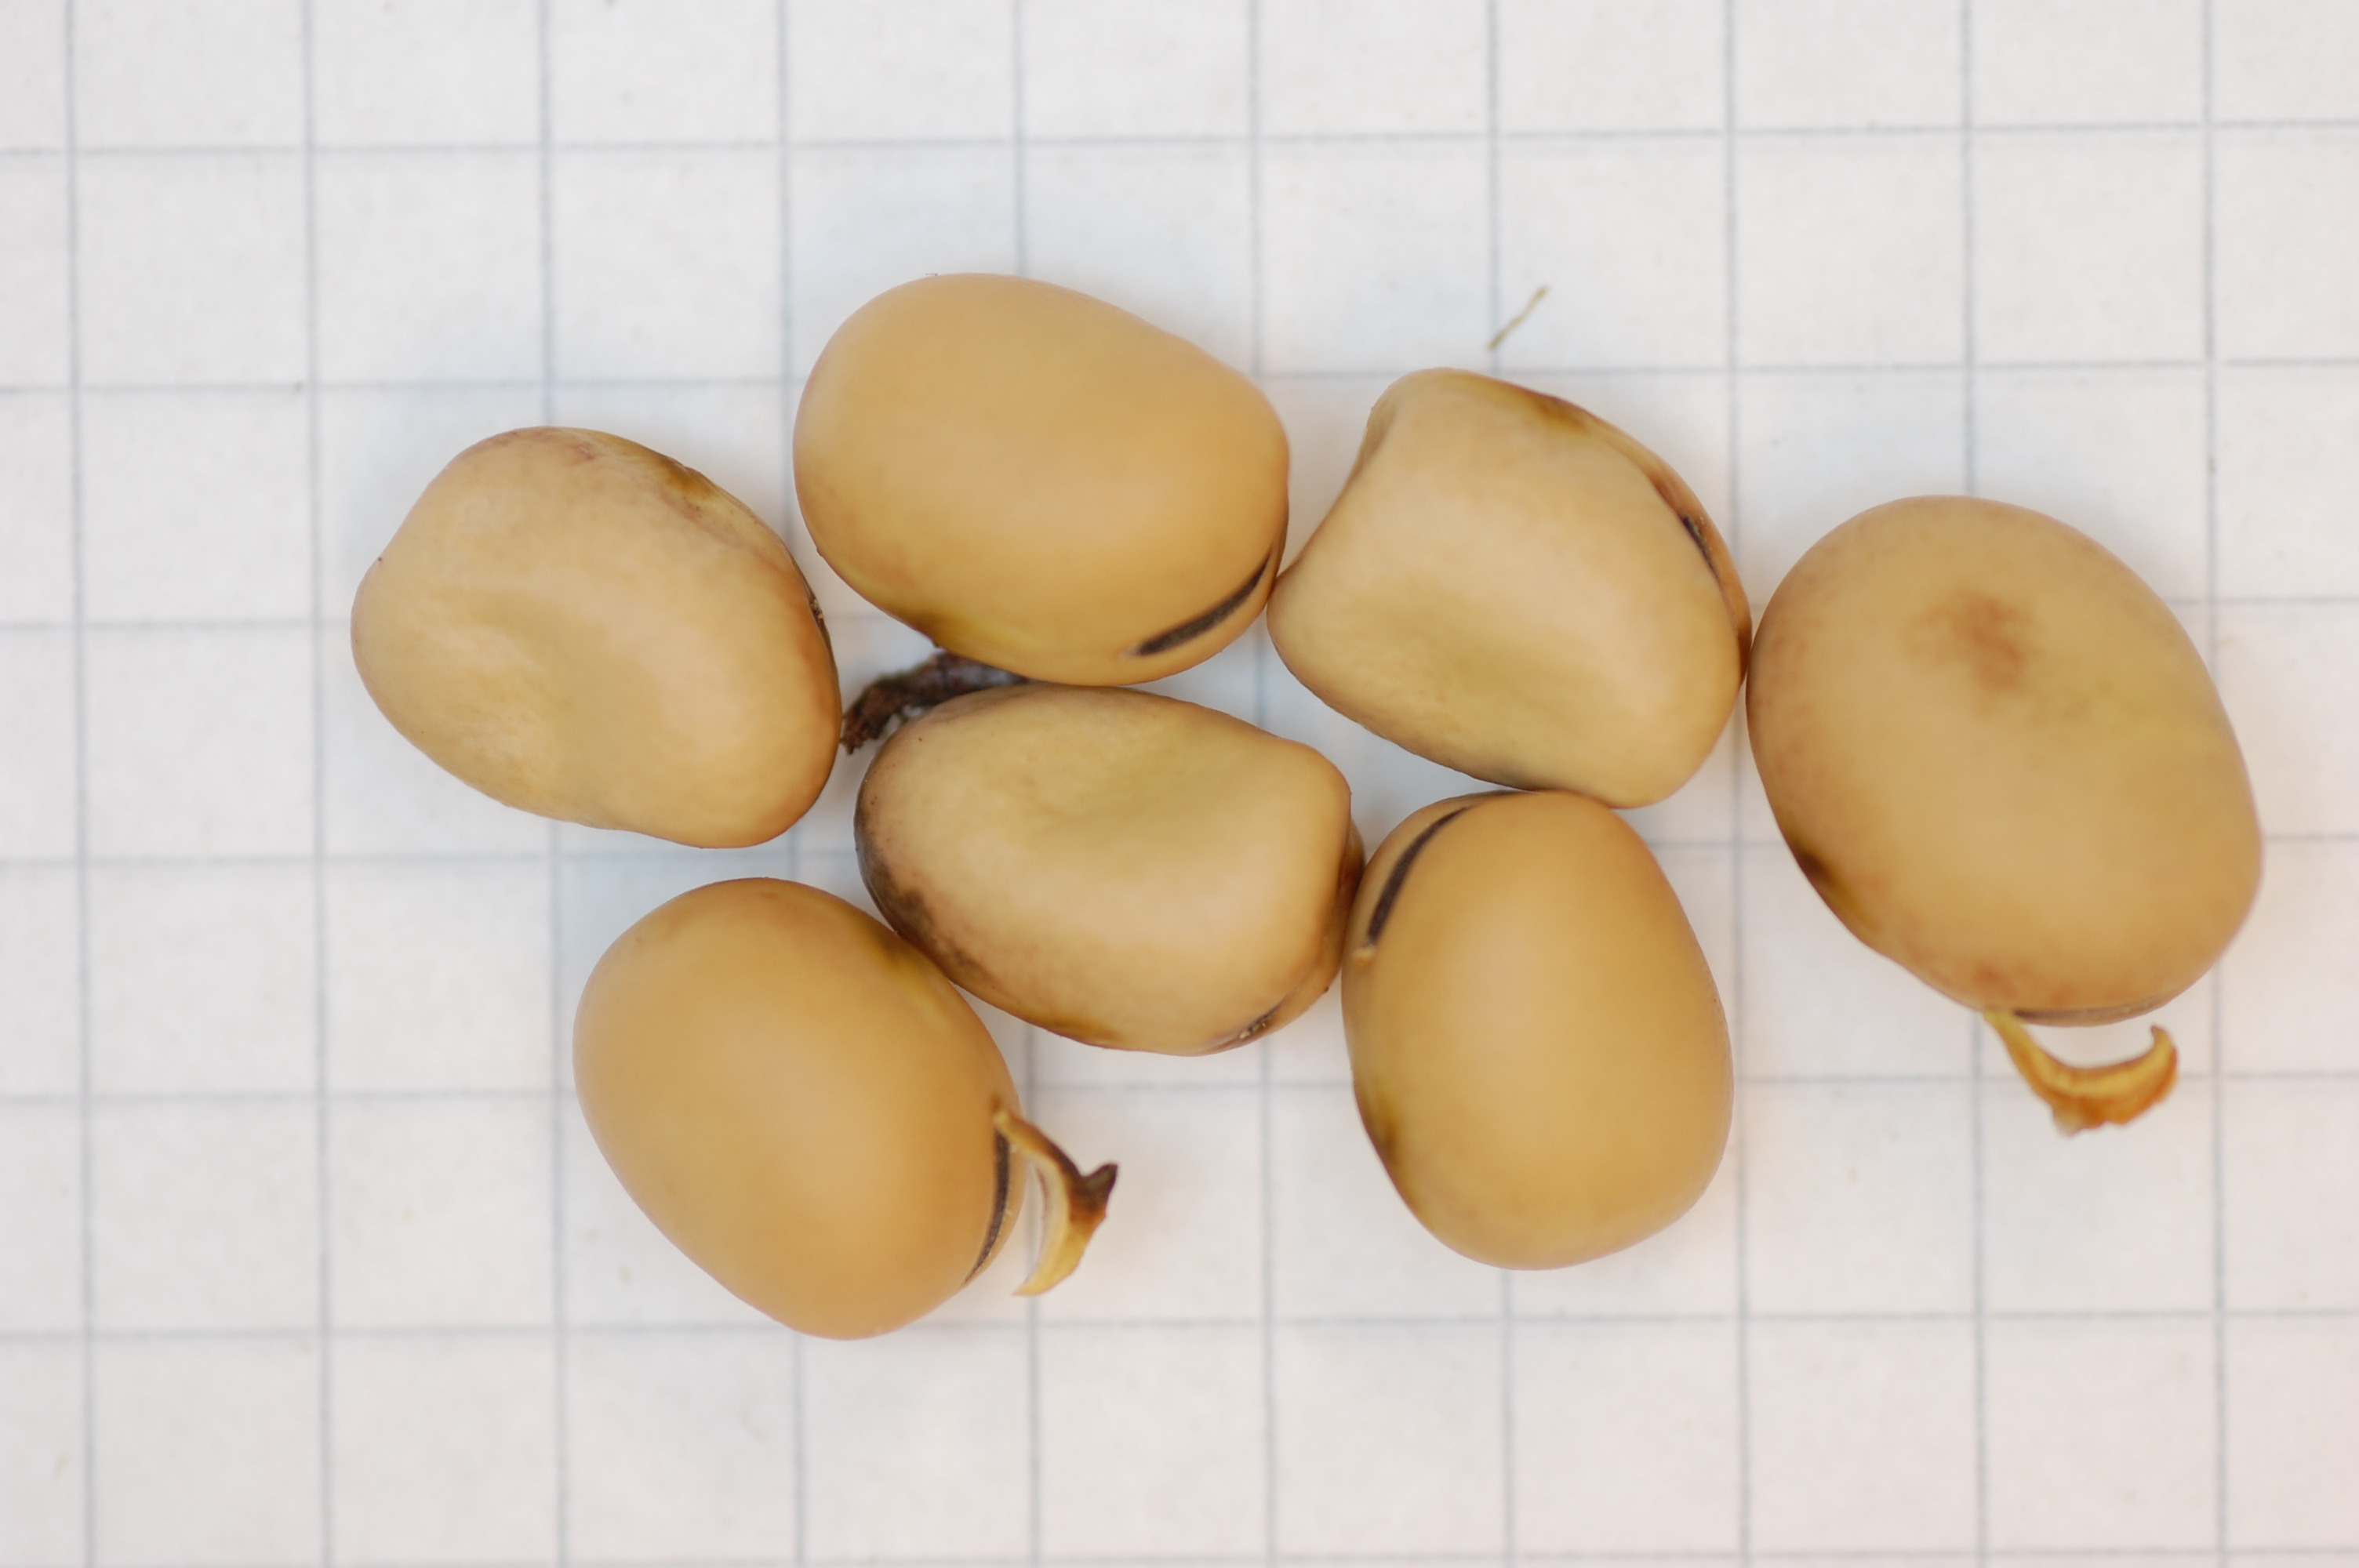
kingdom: Plantae
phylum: Tracheophyta
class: Magnoliopsida
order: Fabales
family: Fabaceae
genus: Vicia
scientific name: Vicia faba
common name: Broad bean
